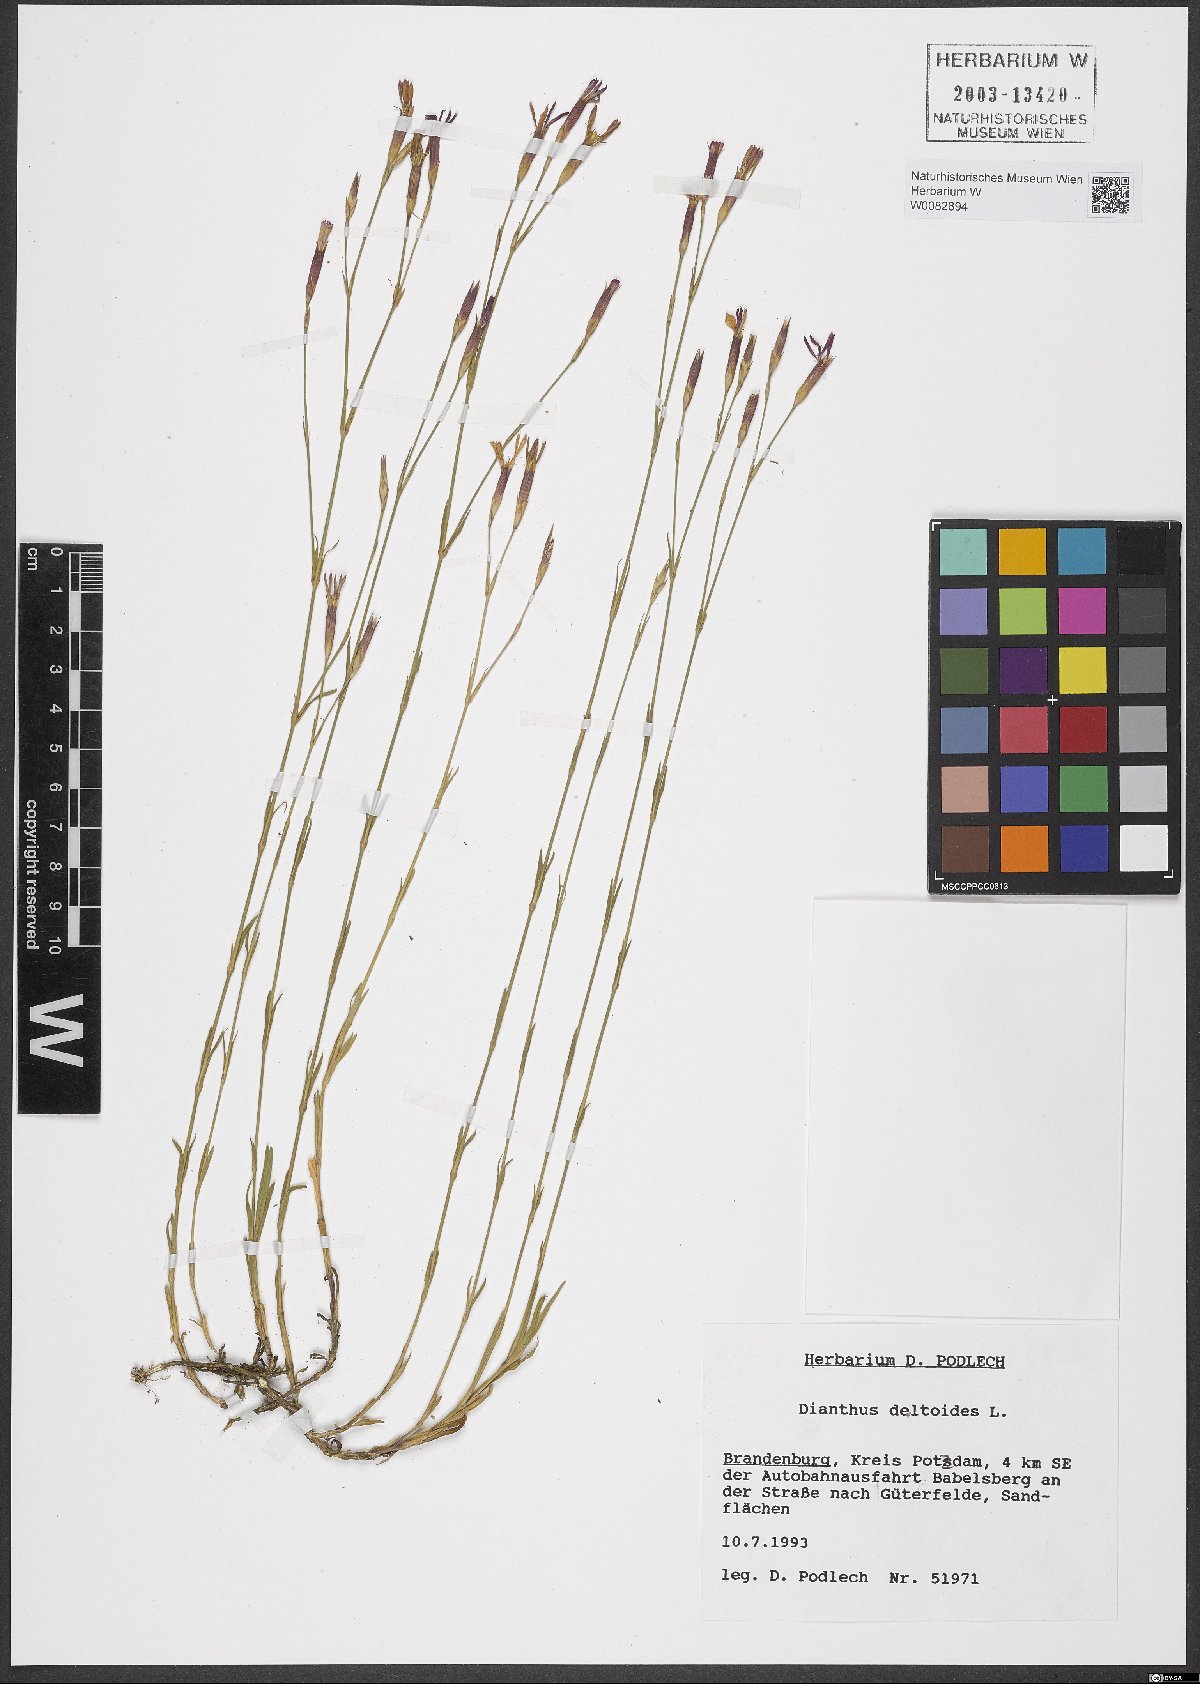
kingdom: Plantae
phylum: Tracheophyta
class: Magnoliopsida
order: Caryophyllales
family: Caryophyllaceae
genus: Dianthus
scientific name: Dianthus deltoides
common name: Maiden pink
